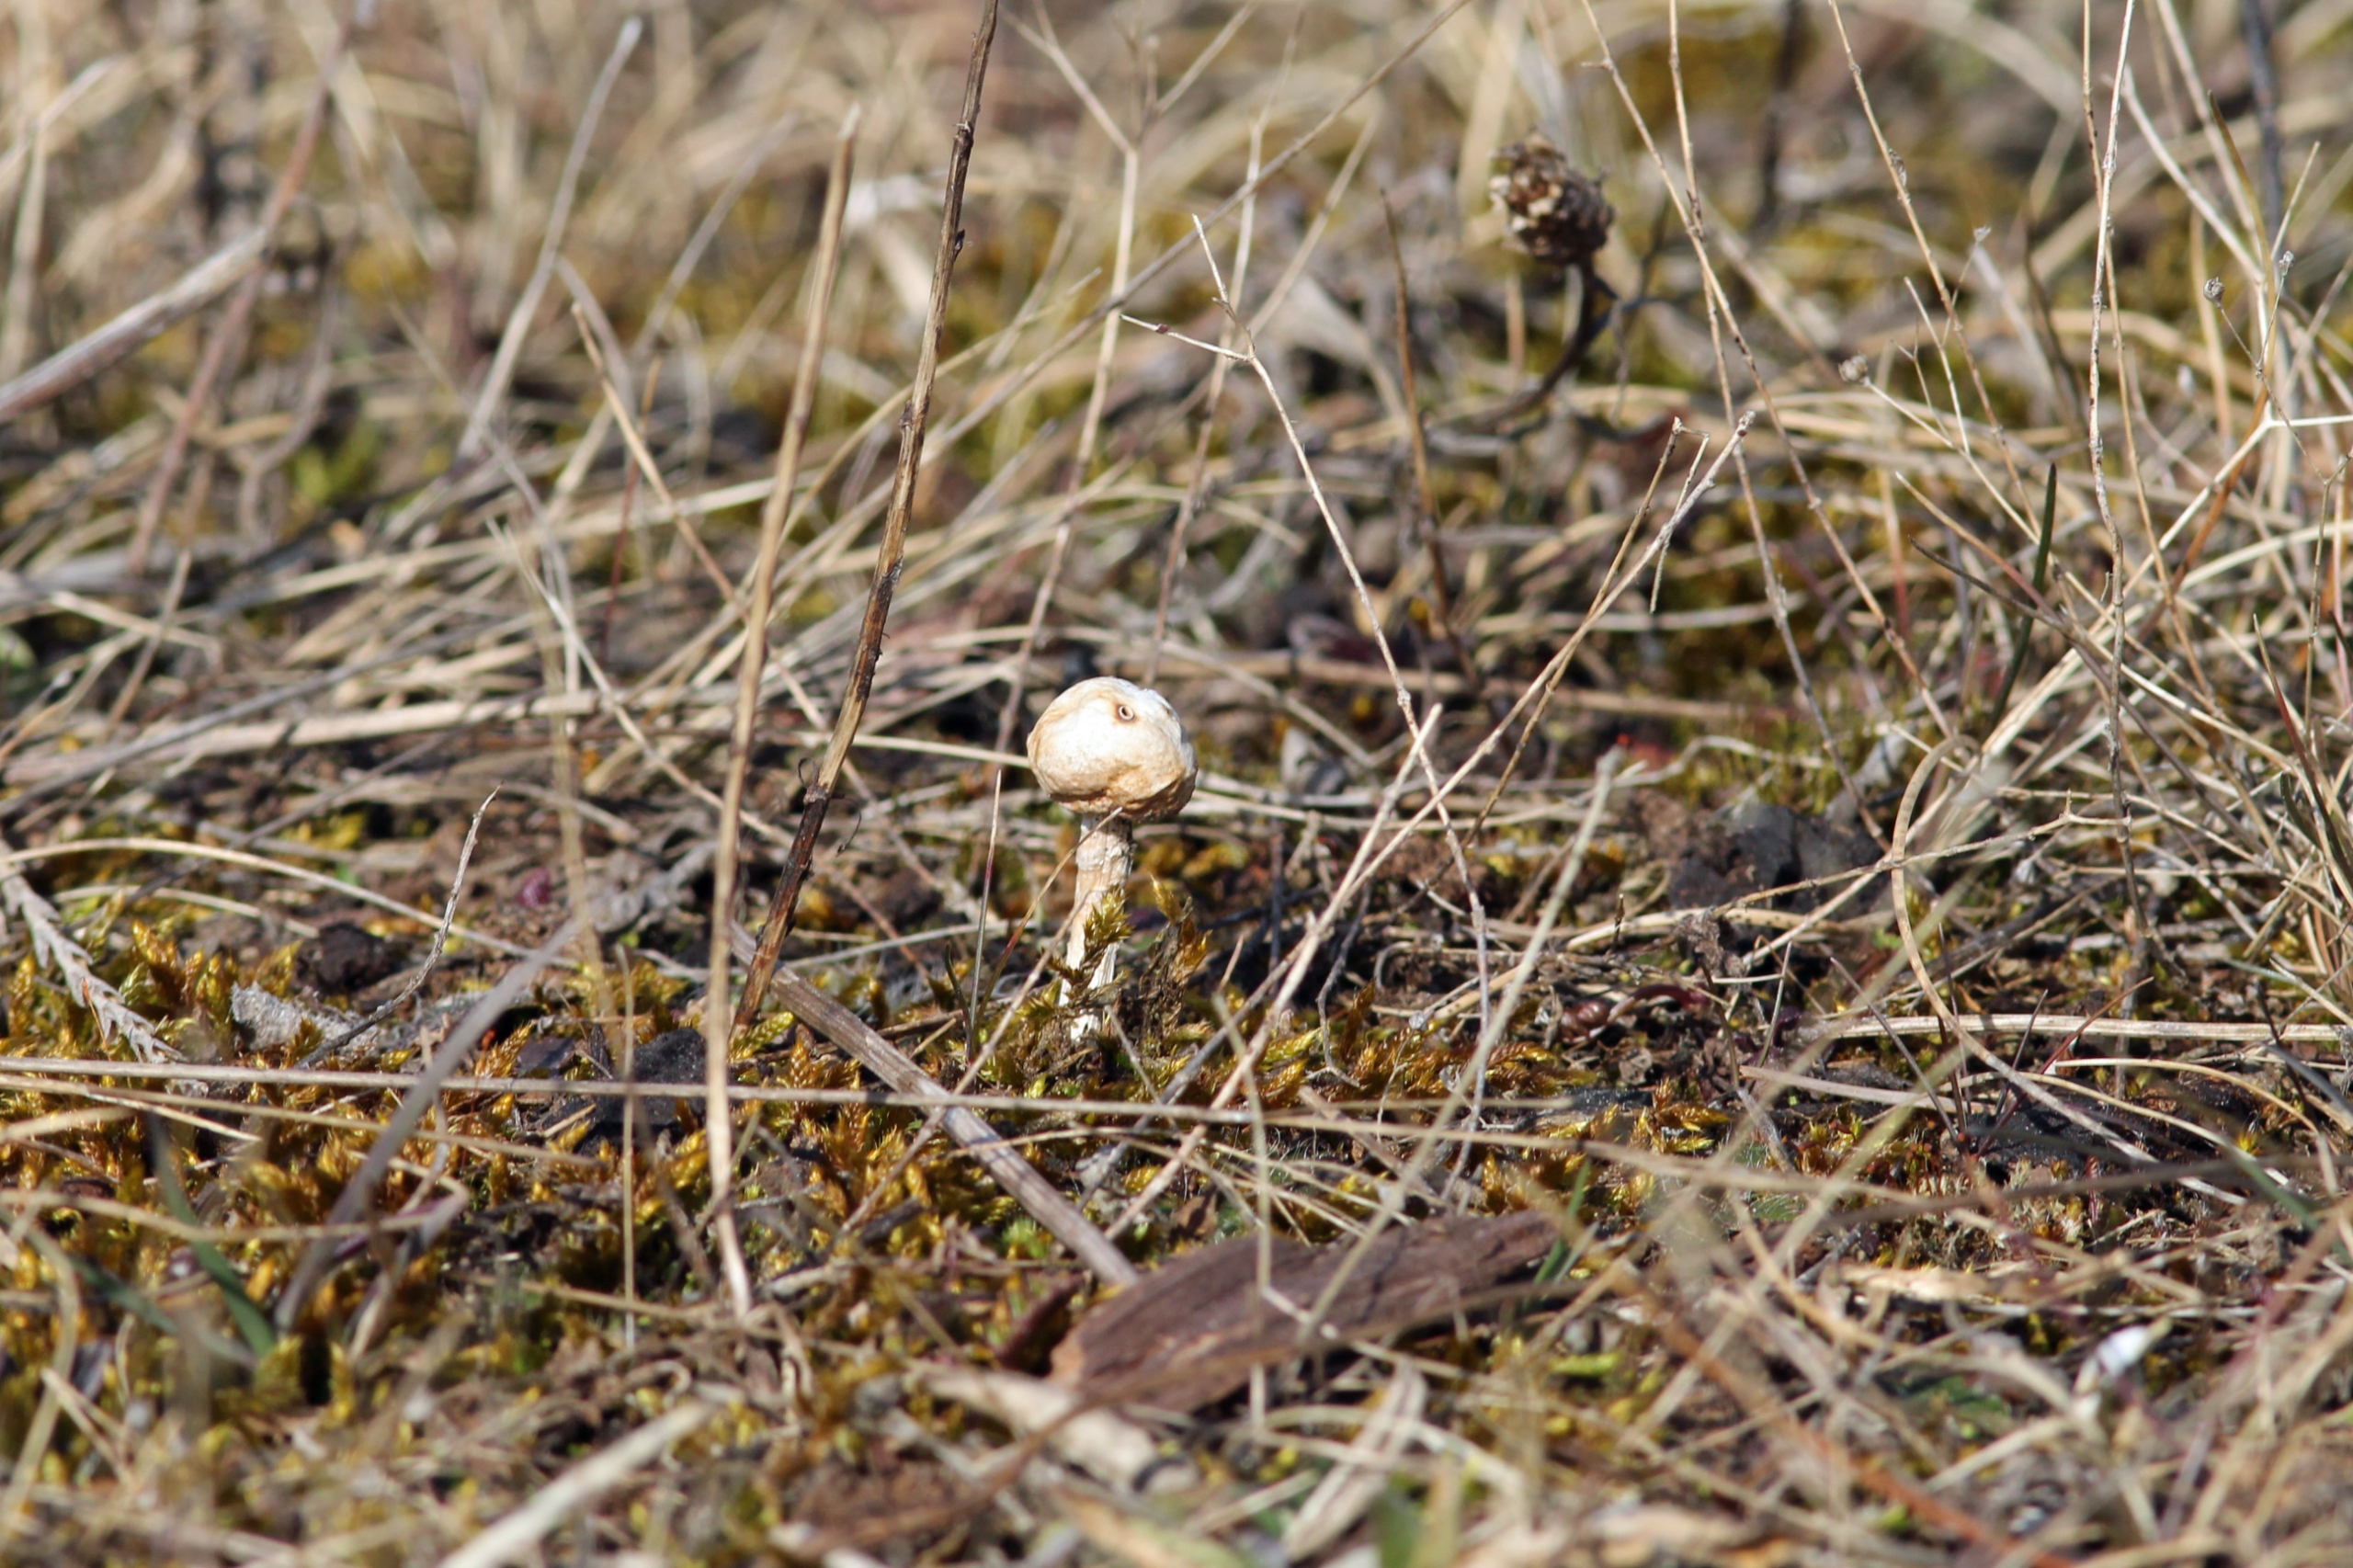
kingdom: Fungi
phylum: Basidiomycota
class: Agaricomycetes
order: Agaricales
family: Agaricaceae
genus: Tulostoma
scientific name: Tulostoma brumale
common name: Vinter-stilkbovist
